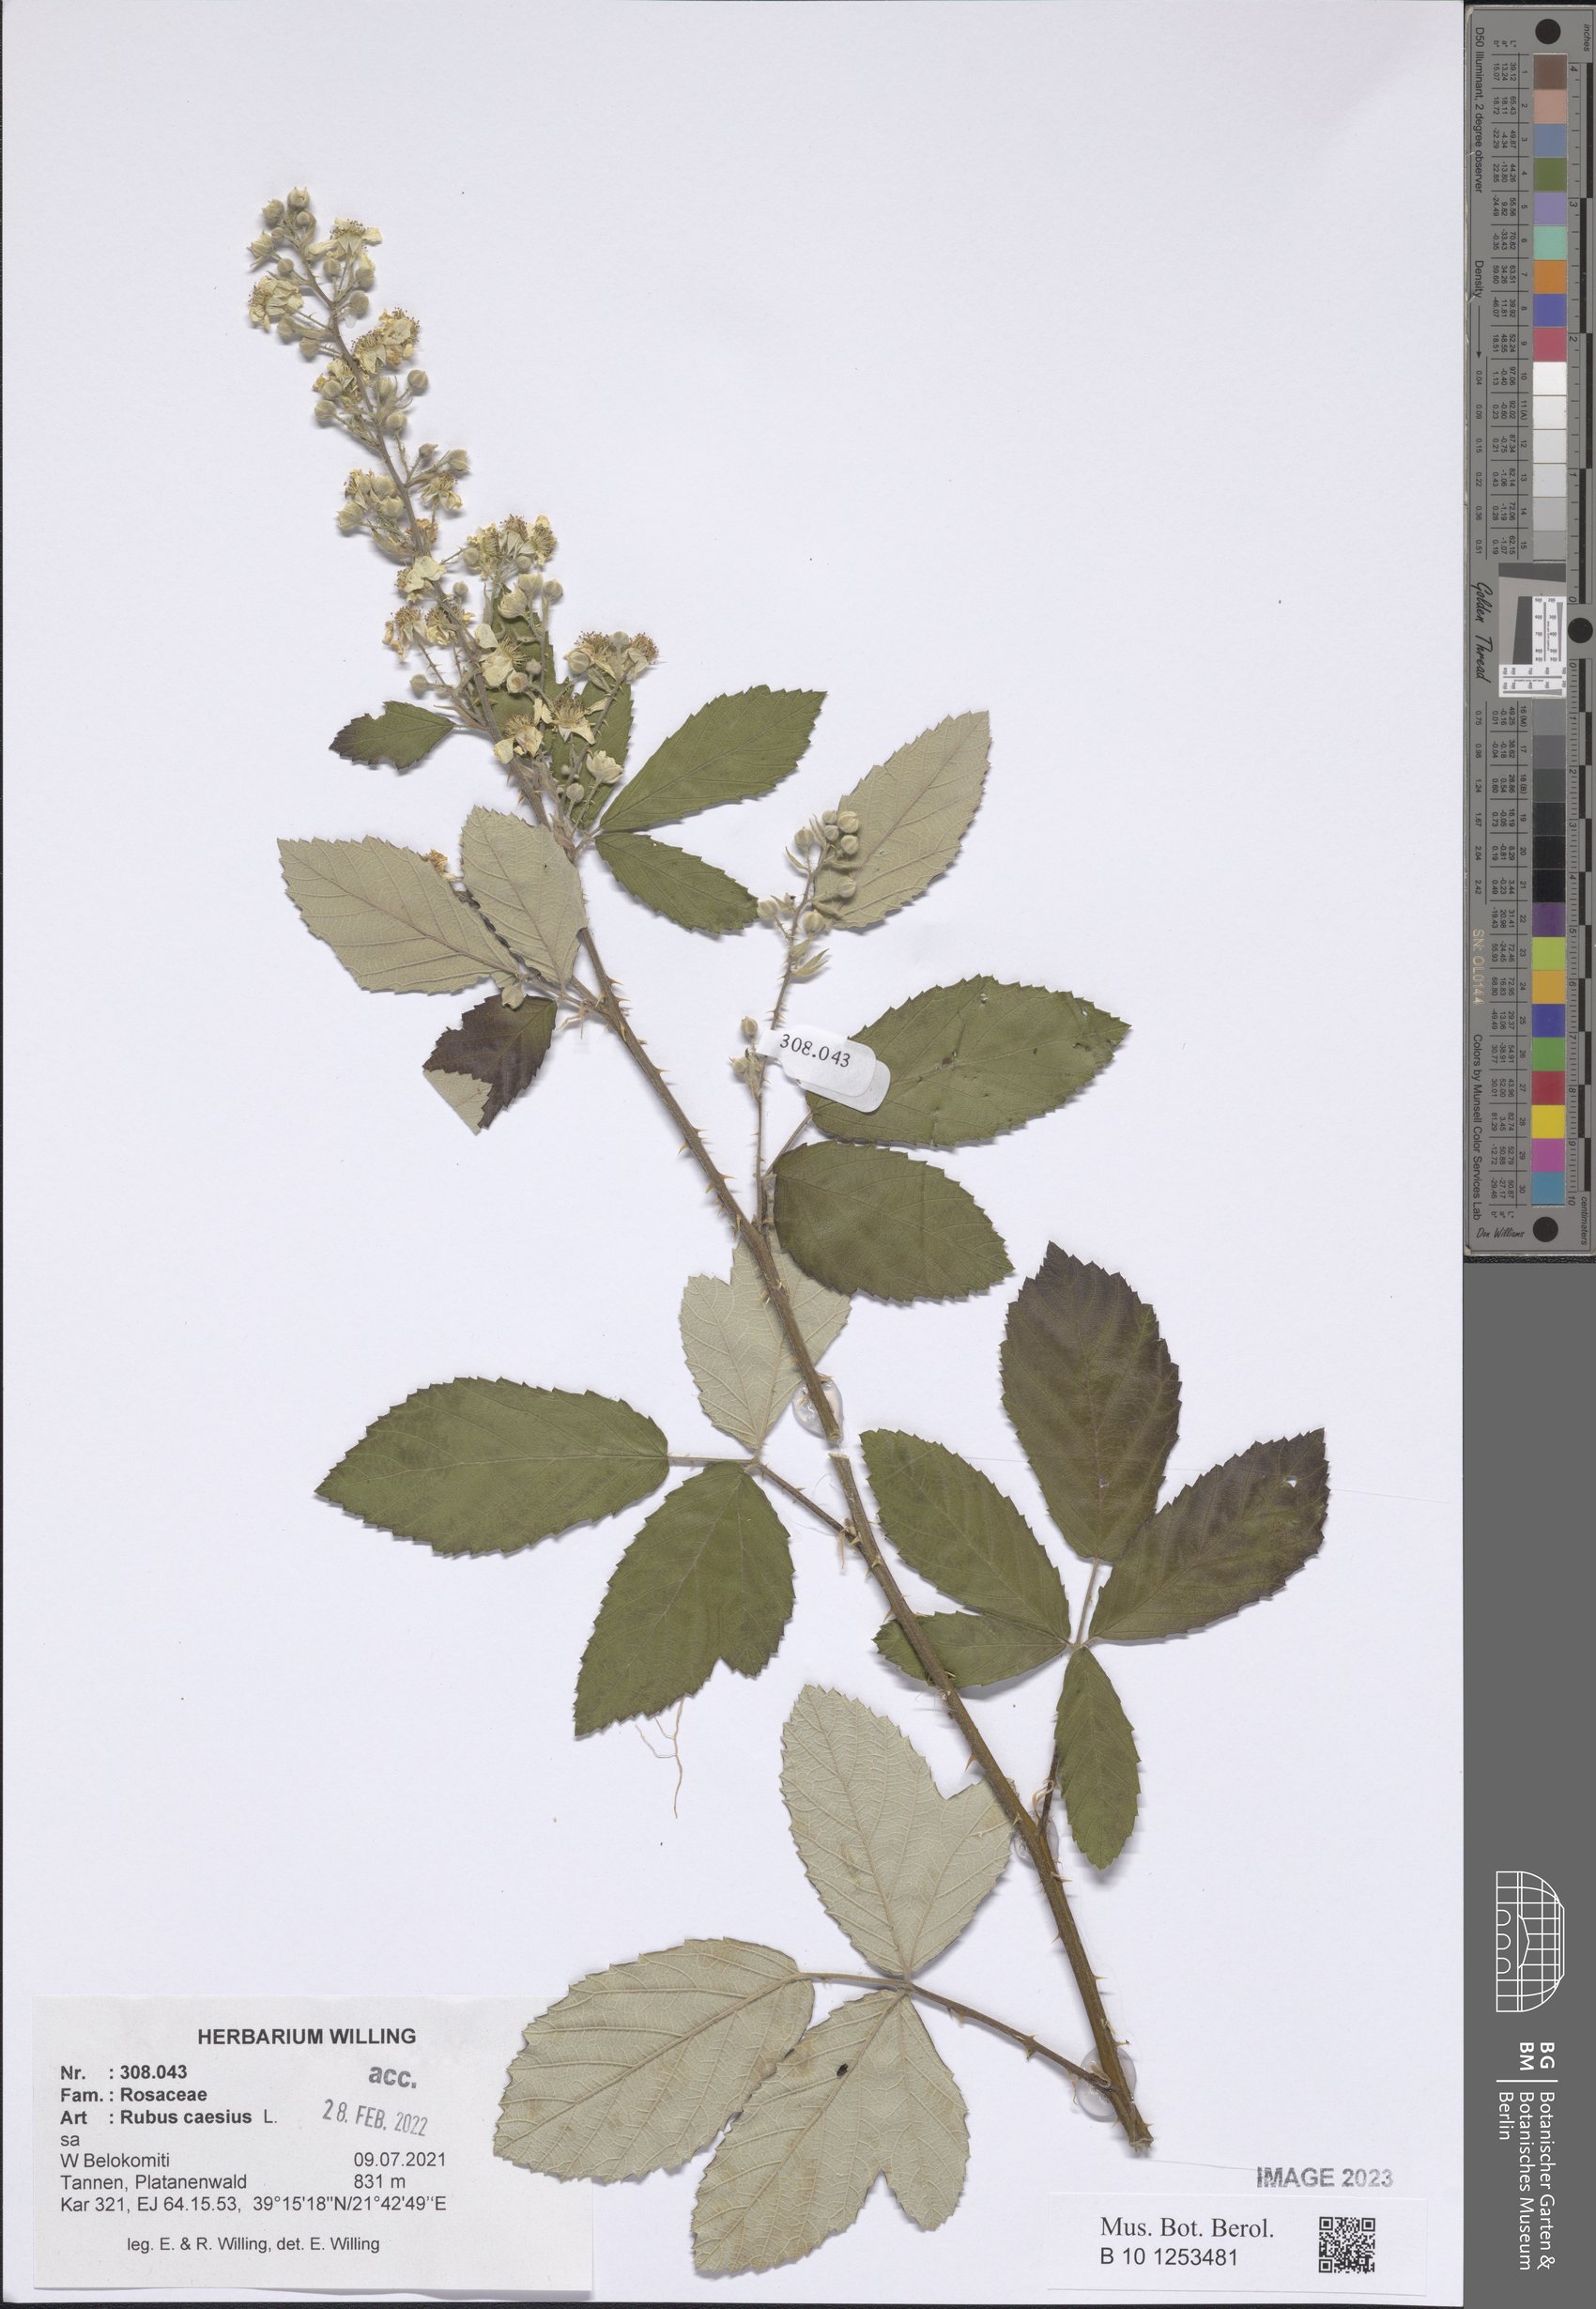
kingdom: Plantae
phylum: Tracheophyta
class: Magnoliopsida
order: Rosales
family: Rosaceae
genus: Rubus
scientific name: Rubus caesius
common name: Dewberry
